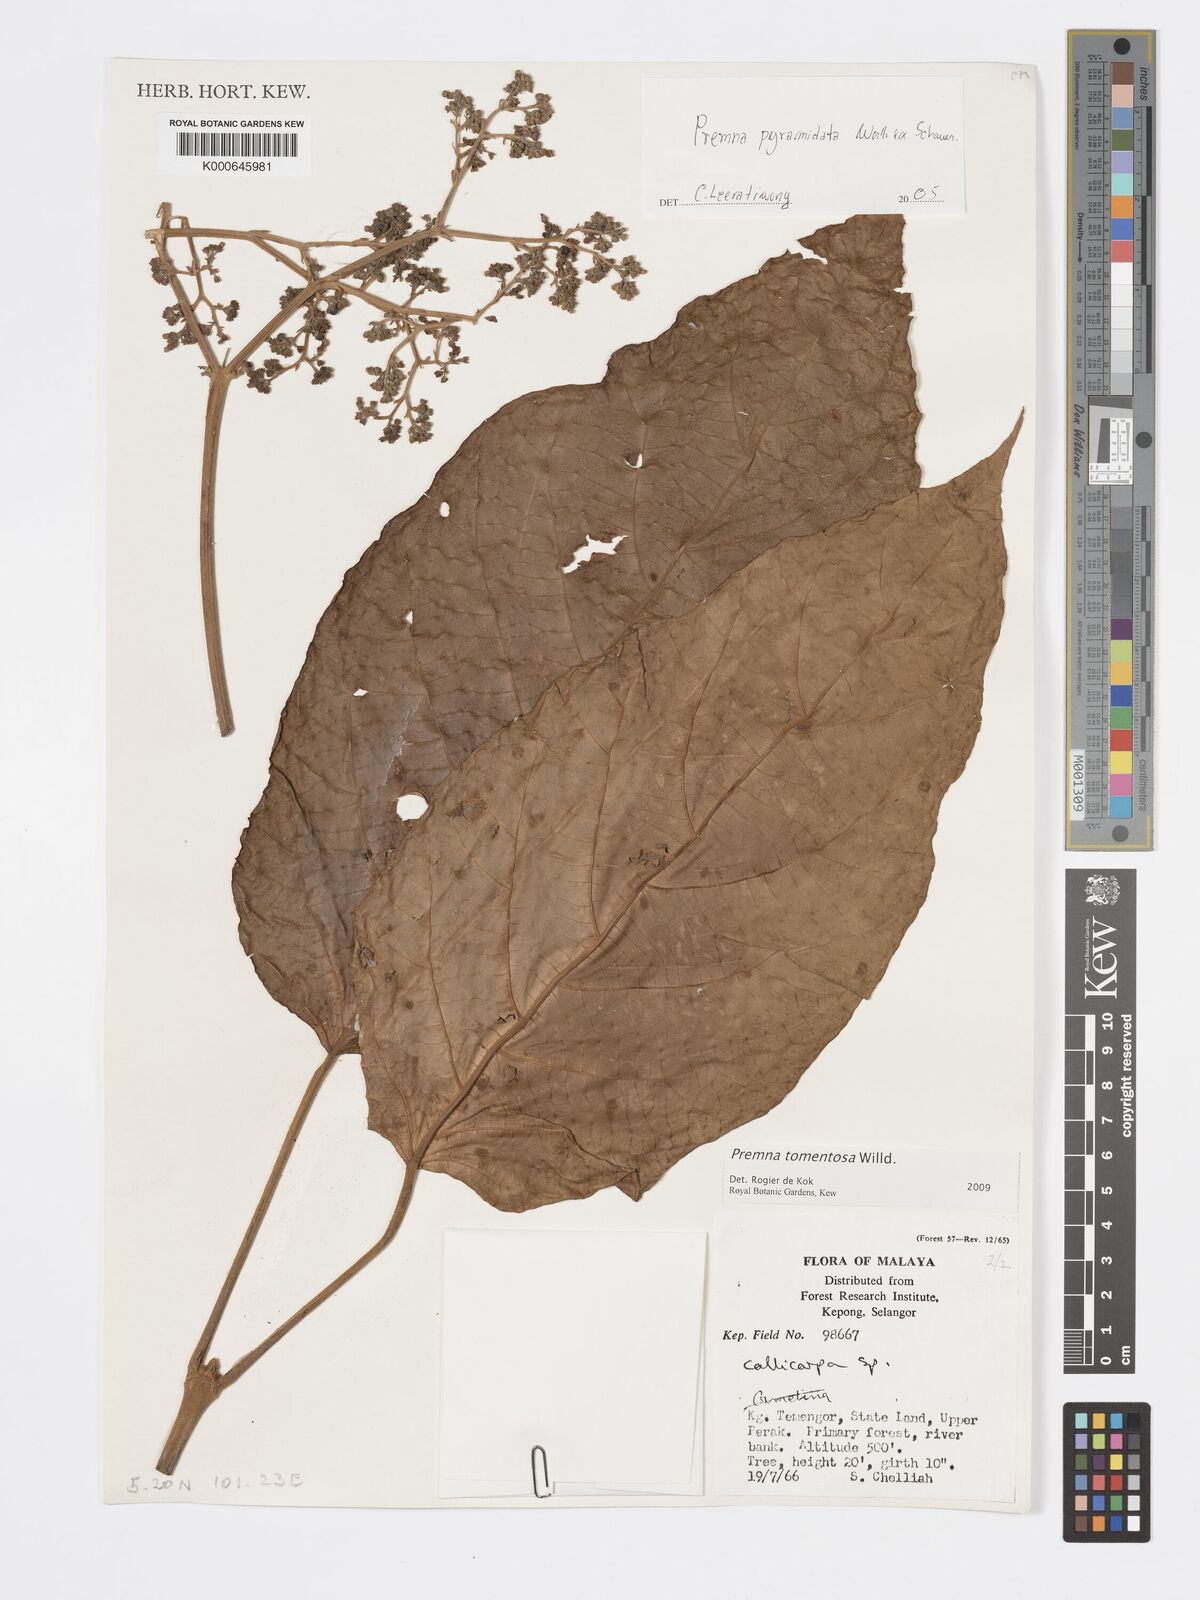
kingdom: Plantae
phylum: Tracheophyta
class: Magnoliopsida
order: Lamiales
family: Lamiaceae
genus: Premna
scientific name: Premna tomentosa
